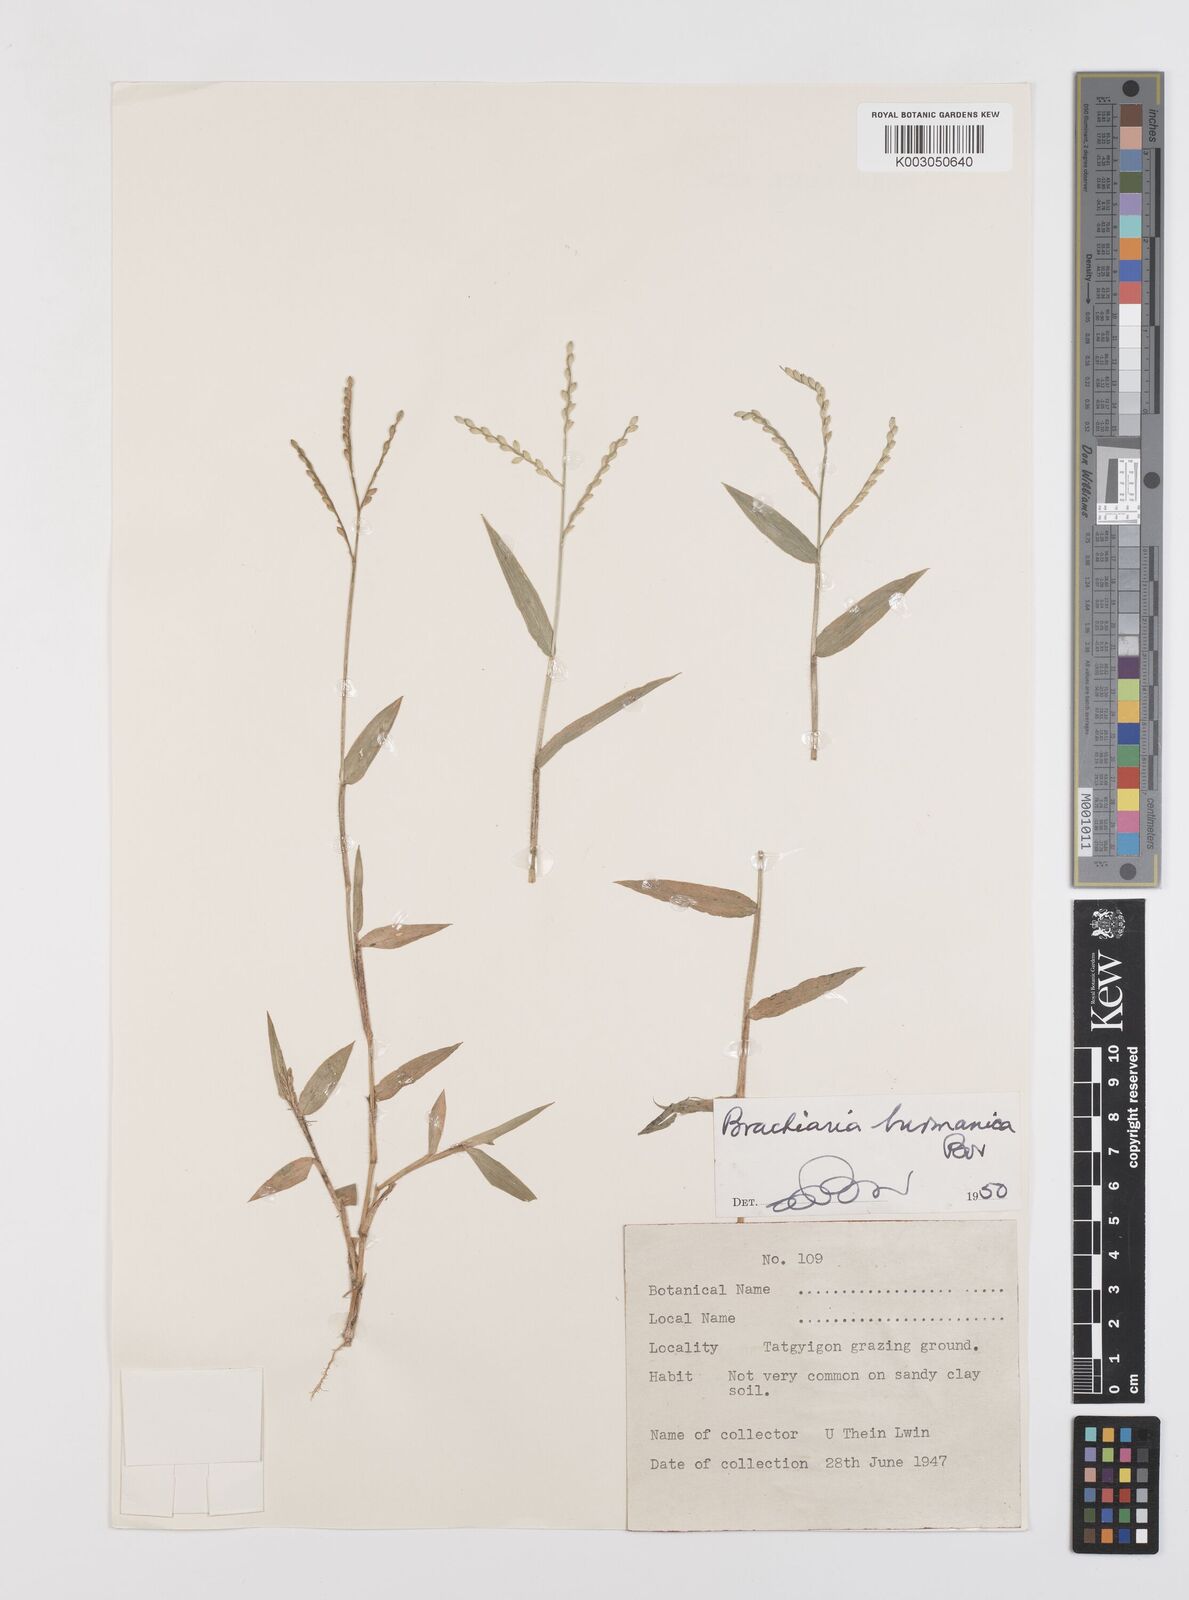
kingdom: Plantae
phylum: Tracheophyta
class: Liliopsida
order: Poales
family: Poaceae
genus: Urochloa
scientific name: Urochloa burmanica
